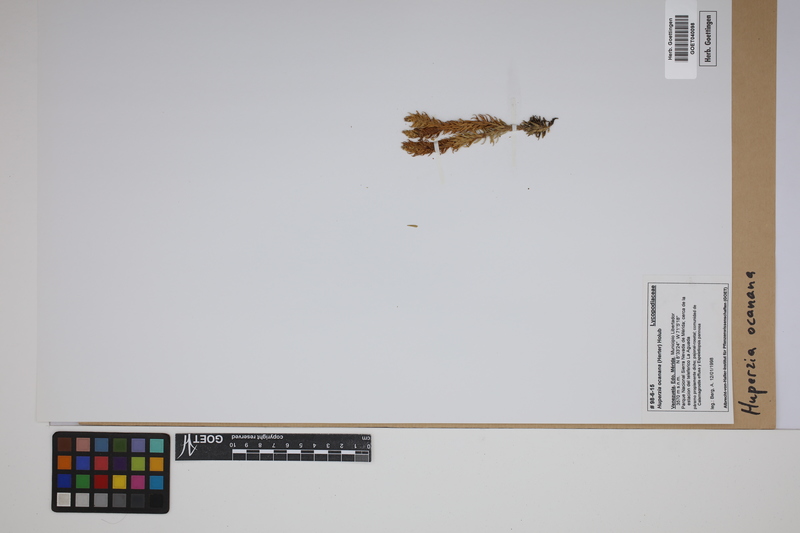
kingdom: Plantae
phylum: Tracheophyta
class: Lycopodiopsida
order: Lycopodiales
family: Lycopodiaceae
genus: Phlegmariurus
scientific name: Phlegmariurus ocananus
